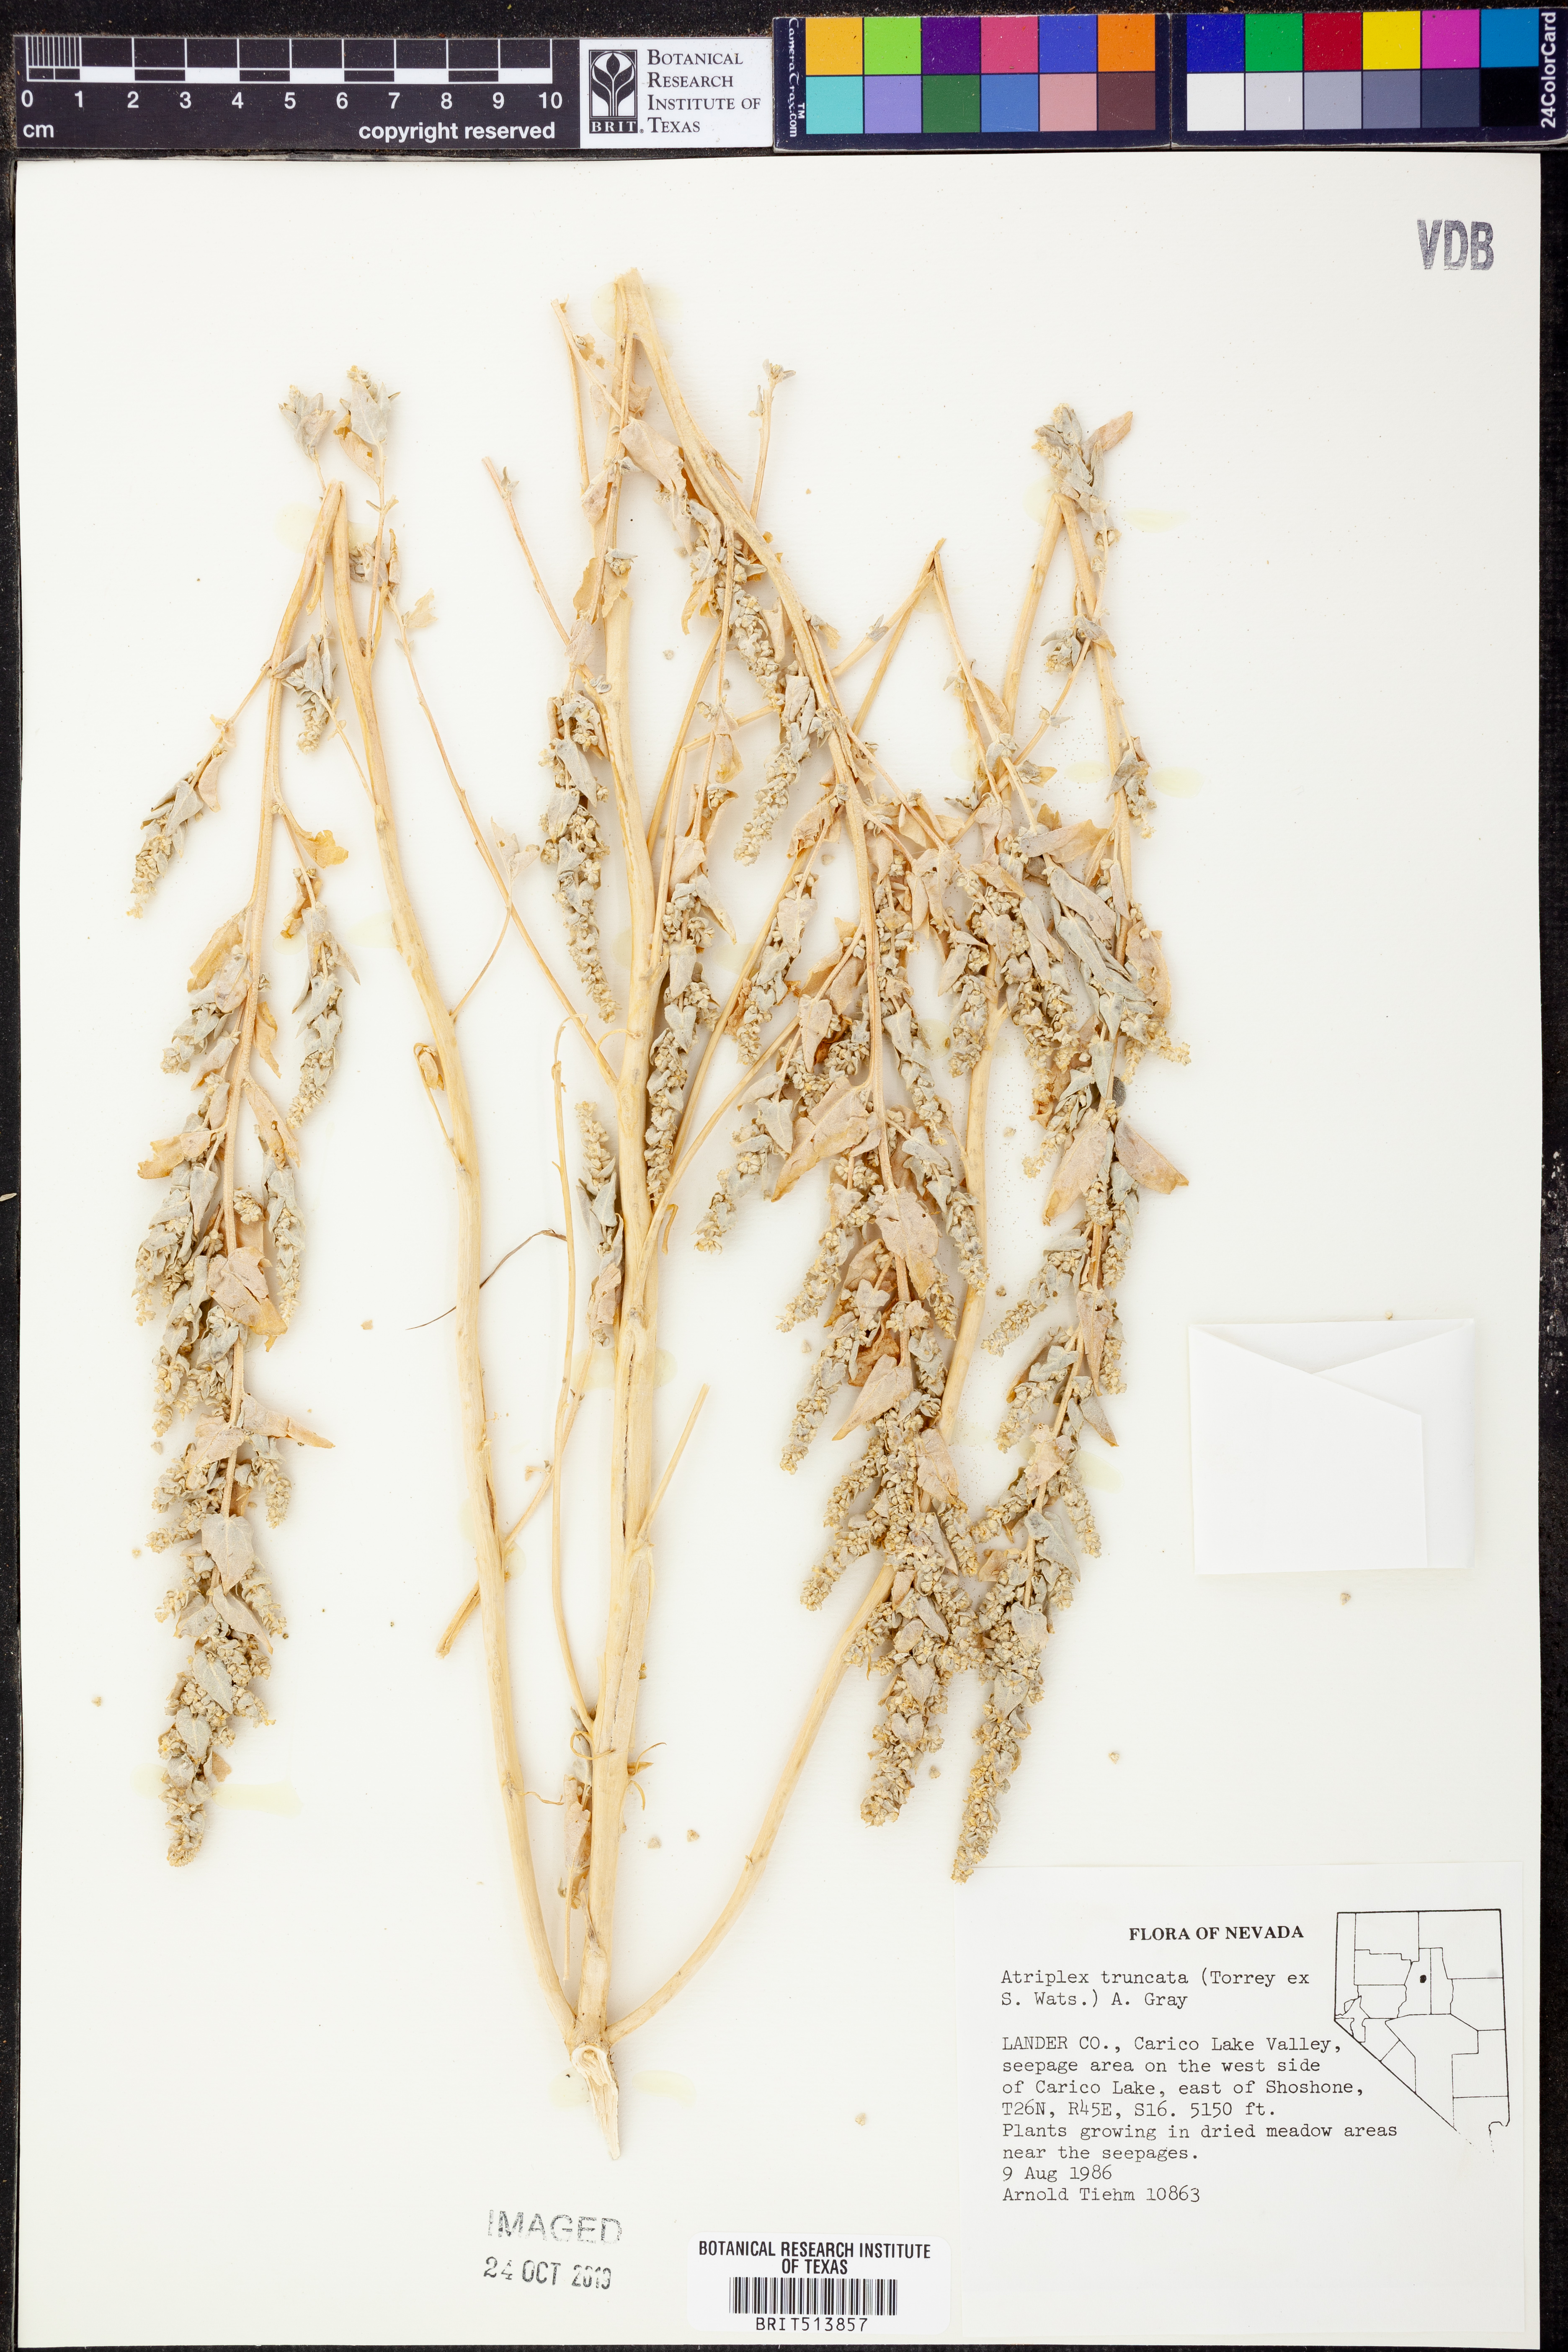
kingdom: Plantae
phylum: Tracheophyta
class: Magnoliopsida
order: Caryophyllales
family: Amaranthaceae
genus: Atriplex
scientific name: Atriplex truncata
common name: Wedge-orach
